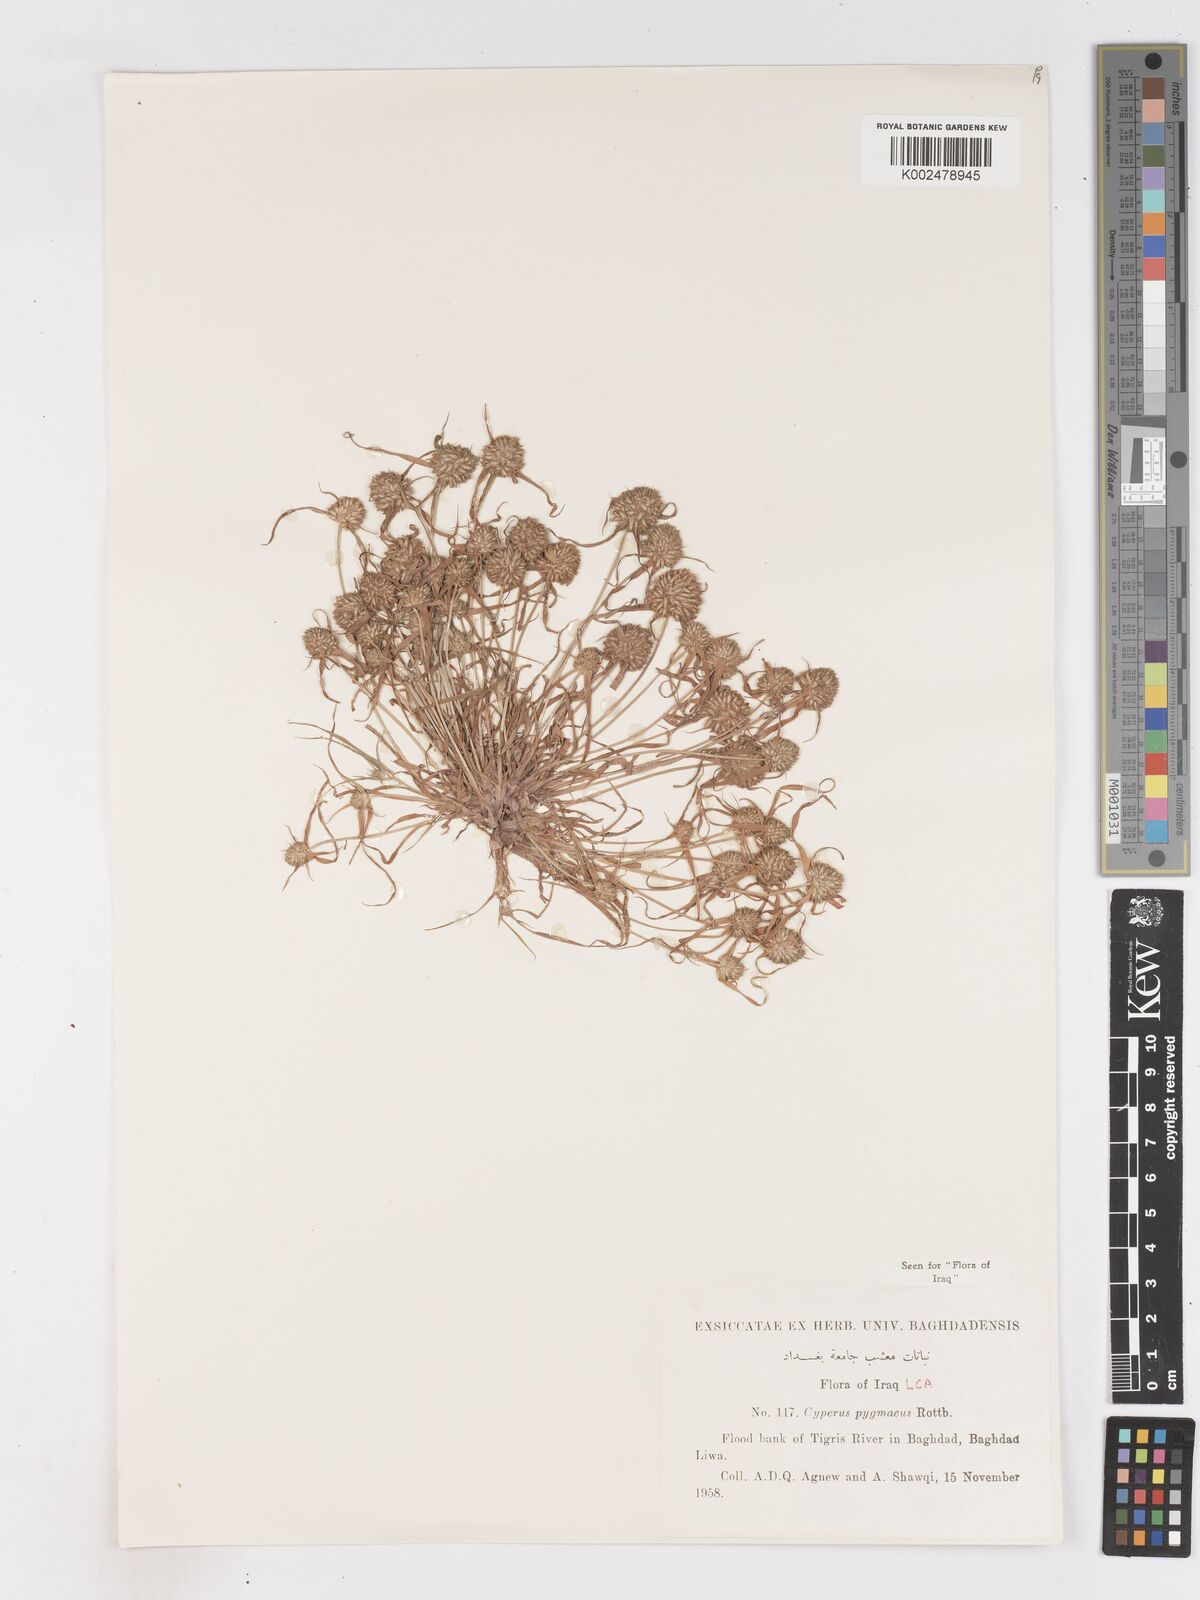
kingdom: Plantae
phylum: Tracheophyta
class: Liliopsida
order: Poales
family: Cyperaceae
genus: Cyperus
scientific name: Cyperus michelianus
